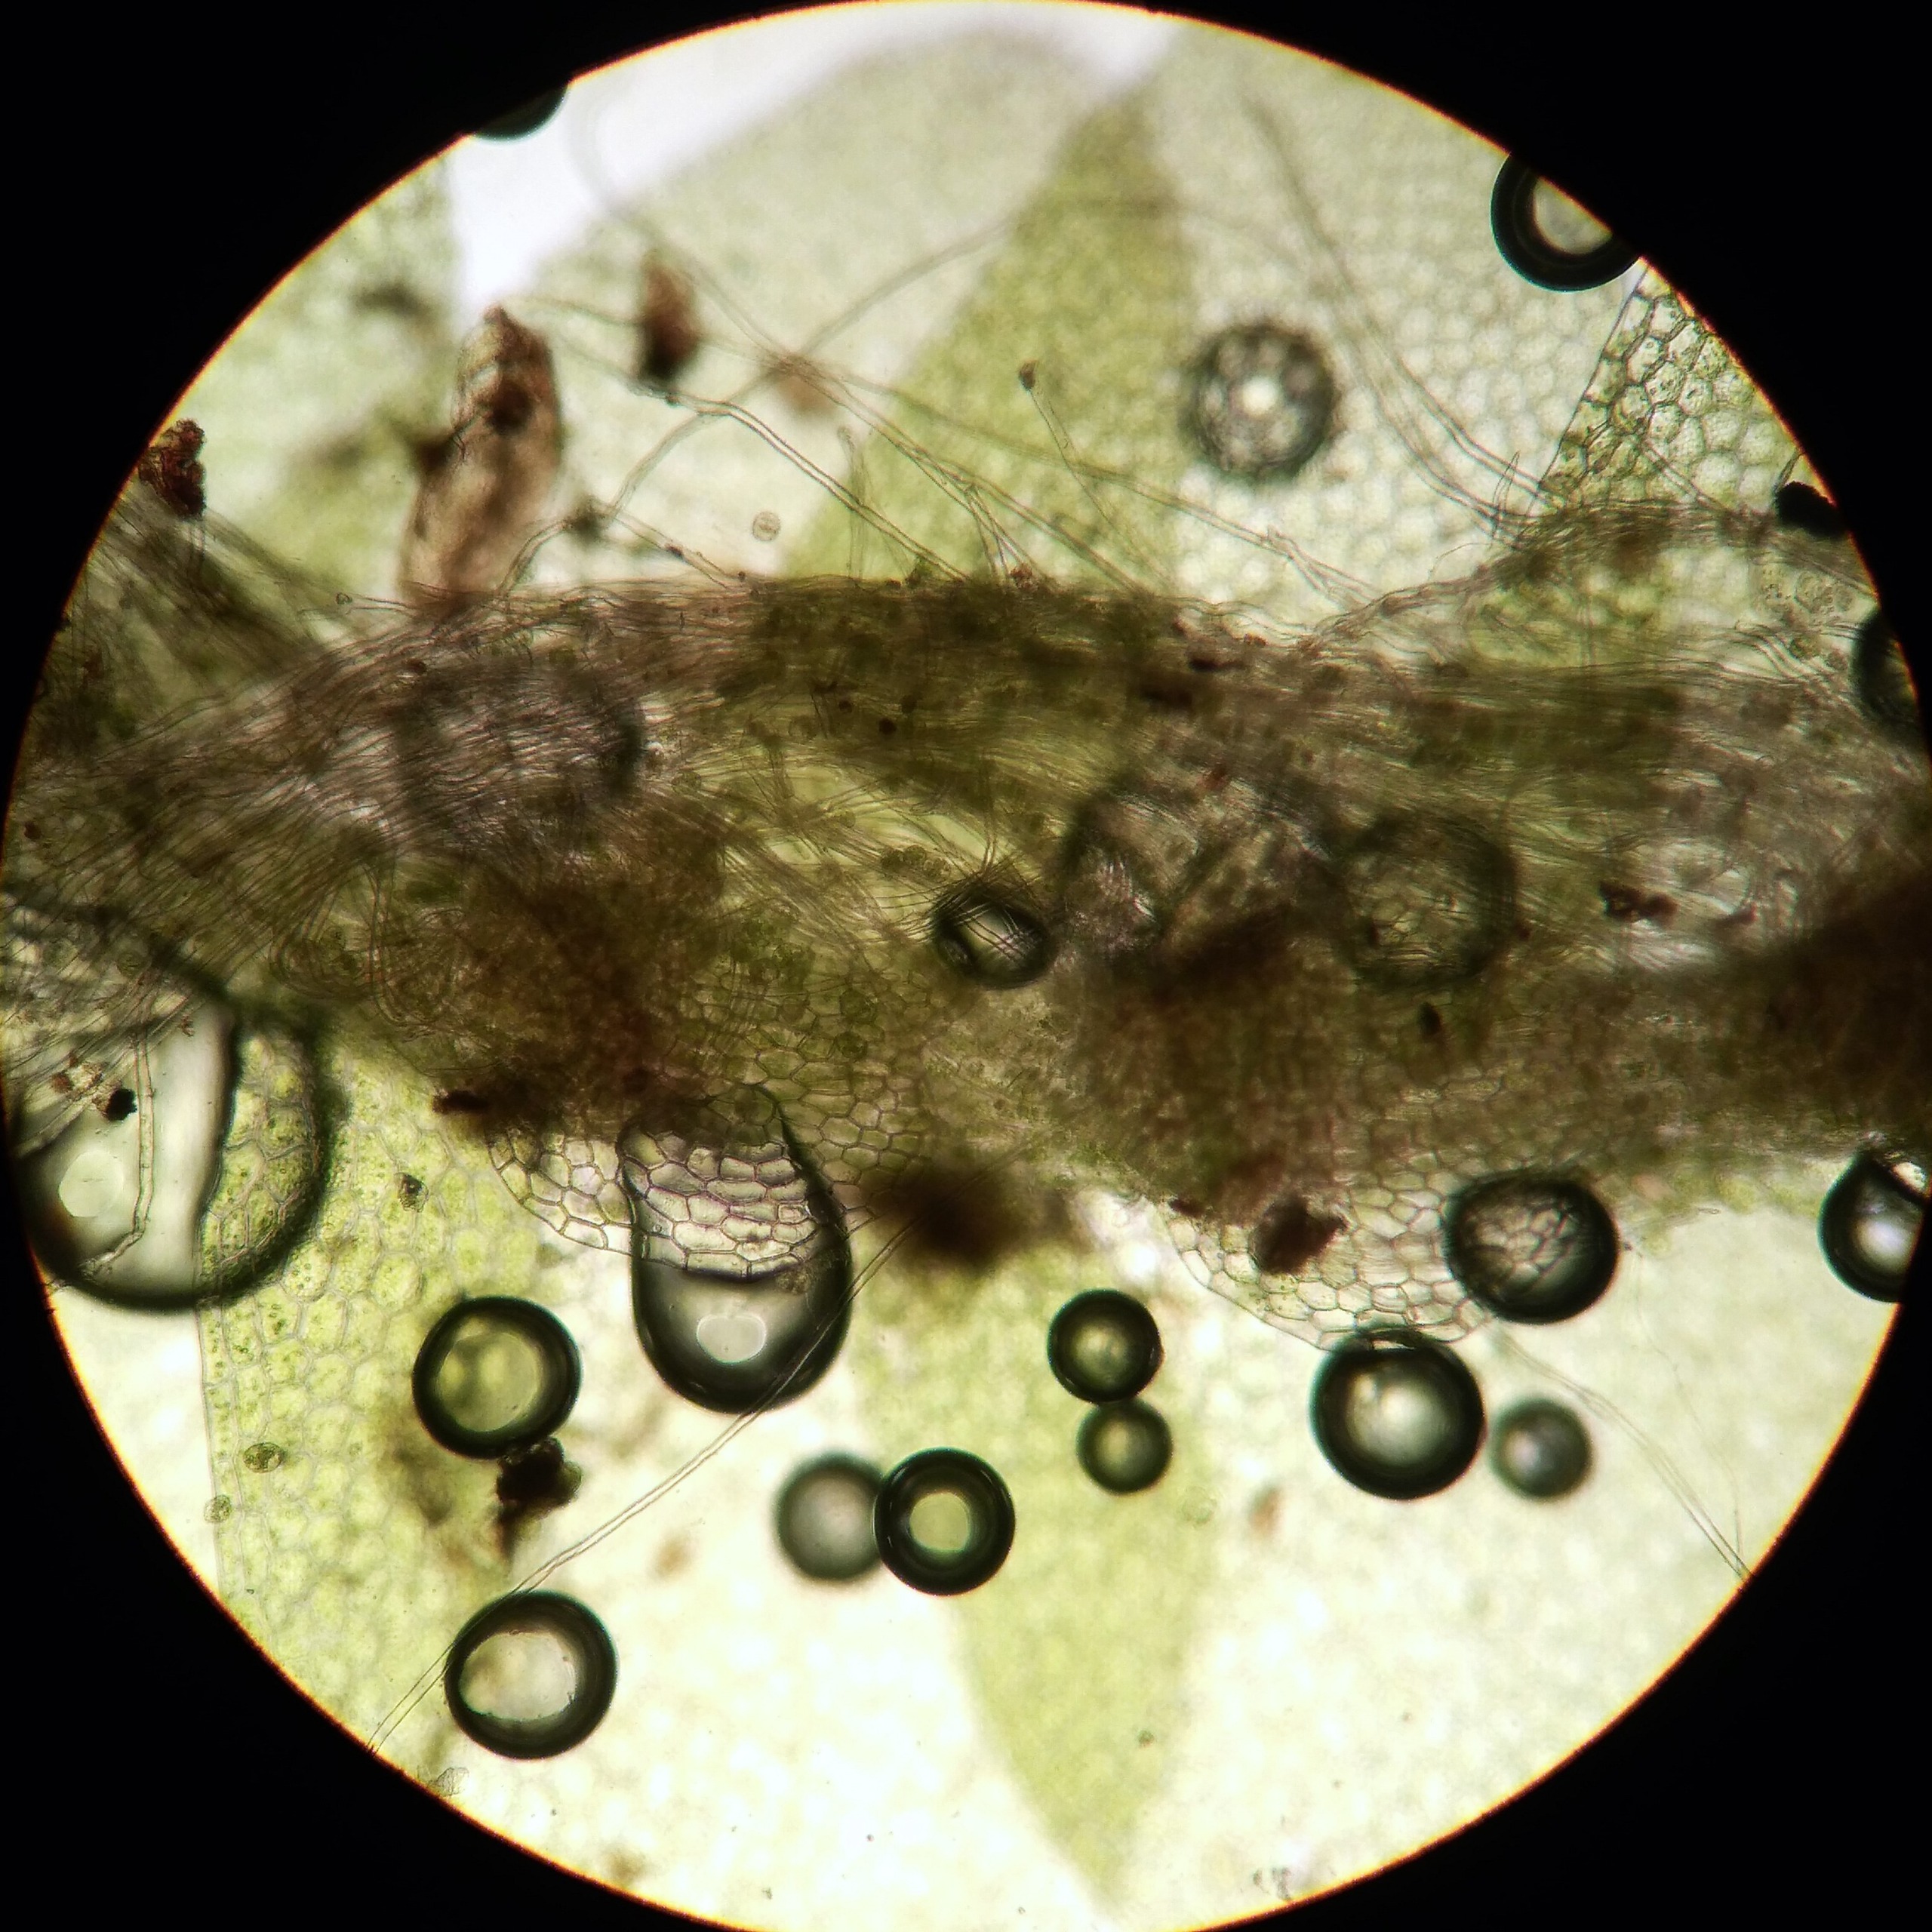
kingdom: Plantae
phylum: Marchantiophyta
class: Jungermanniopsida
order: Jungermanniales
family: Calypogeiaceae
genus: Calypogeia
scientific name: Calypogeia integristipula
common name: Udelt sækmos
